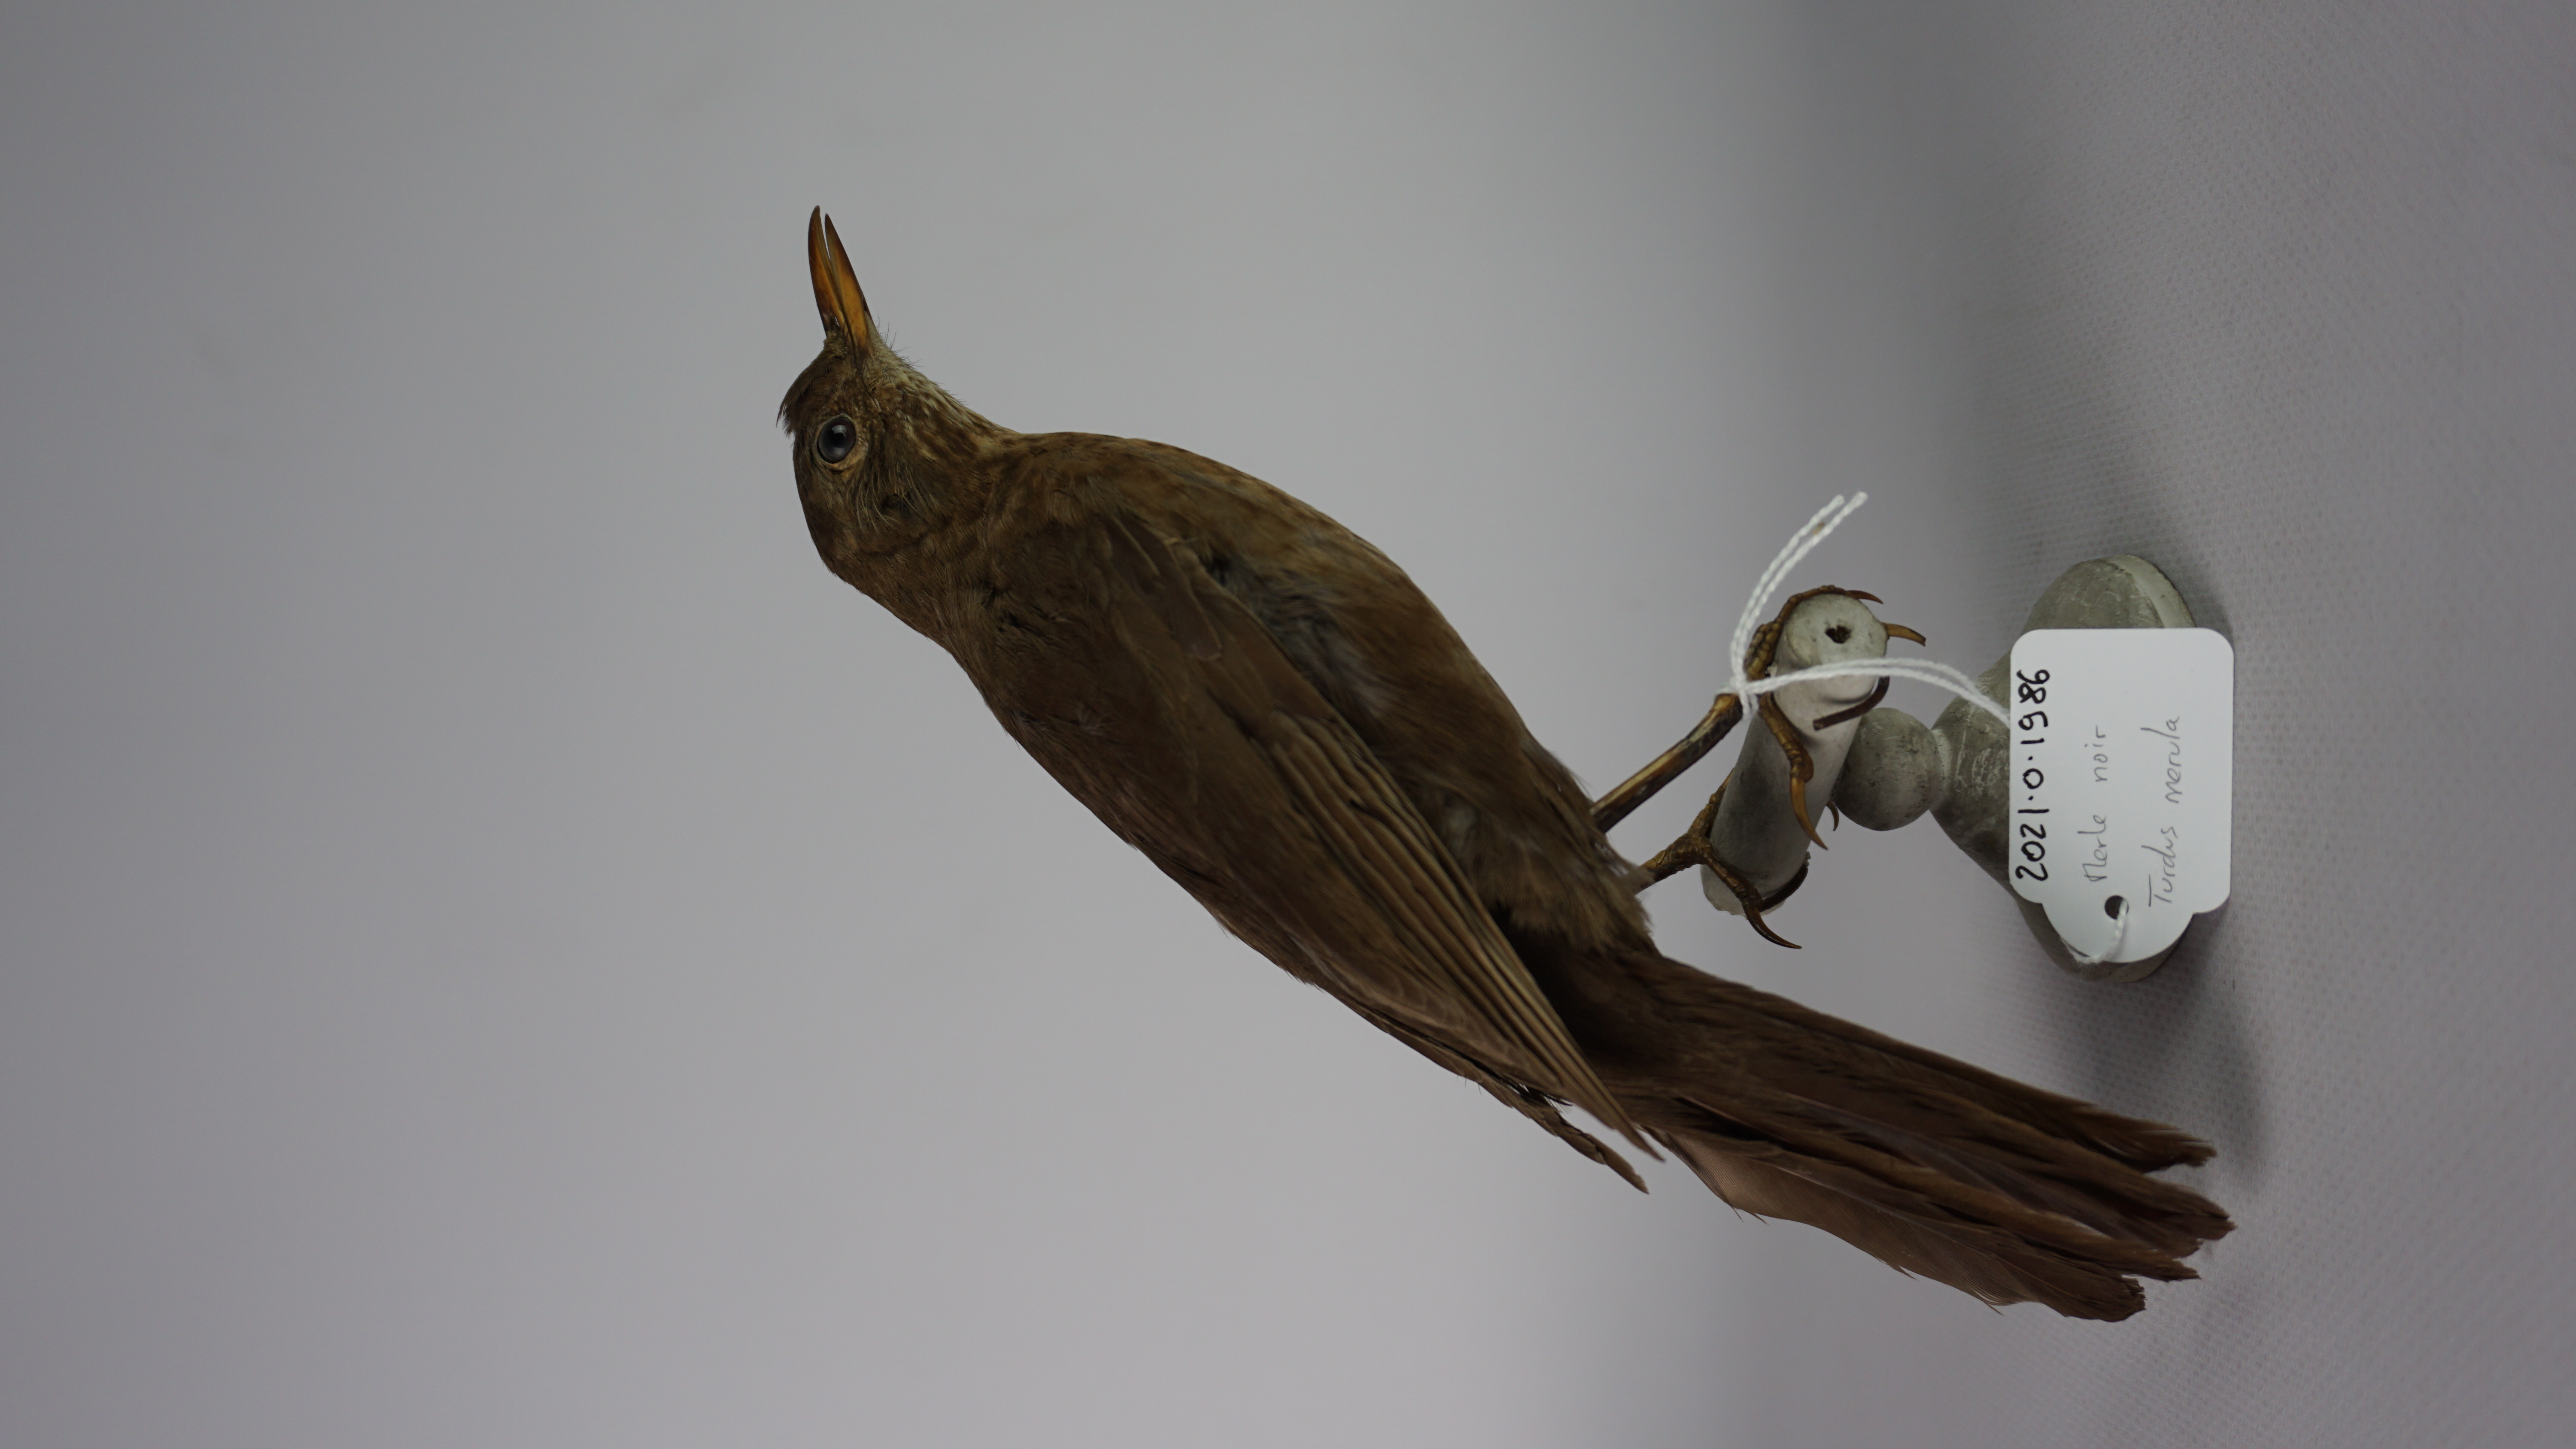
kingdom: Animalia
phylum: Chordata
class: Aves
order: Passeriformes
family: Turdidae
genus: Turdus
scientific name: Turdus merula
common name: Common blackbird
